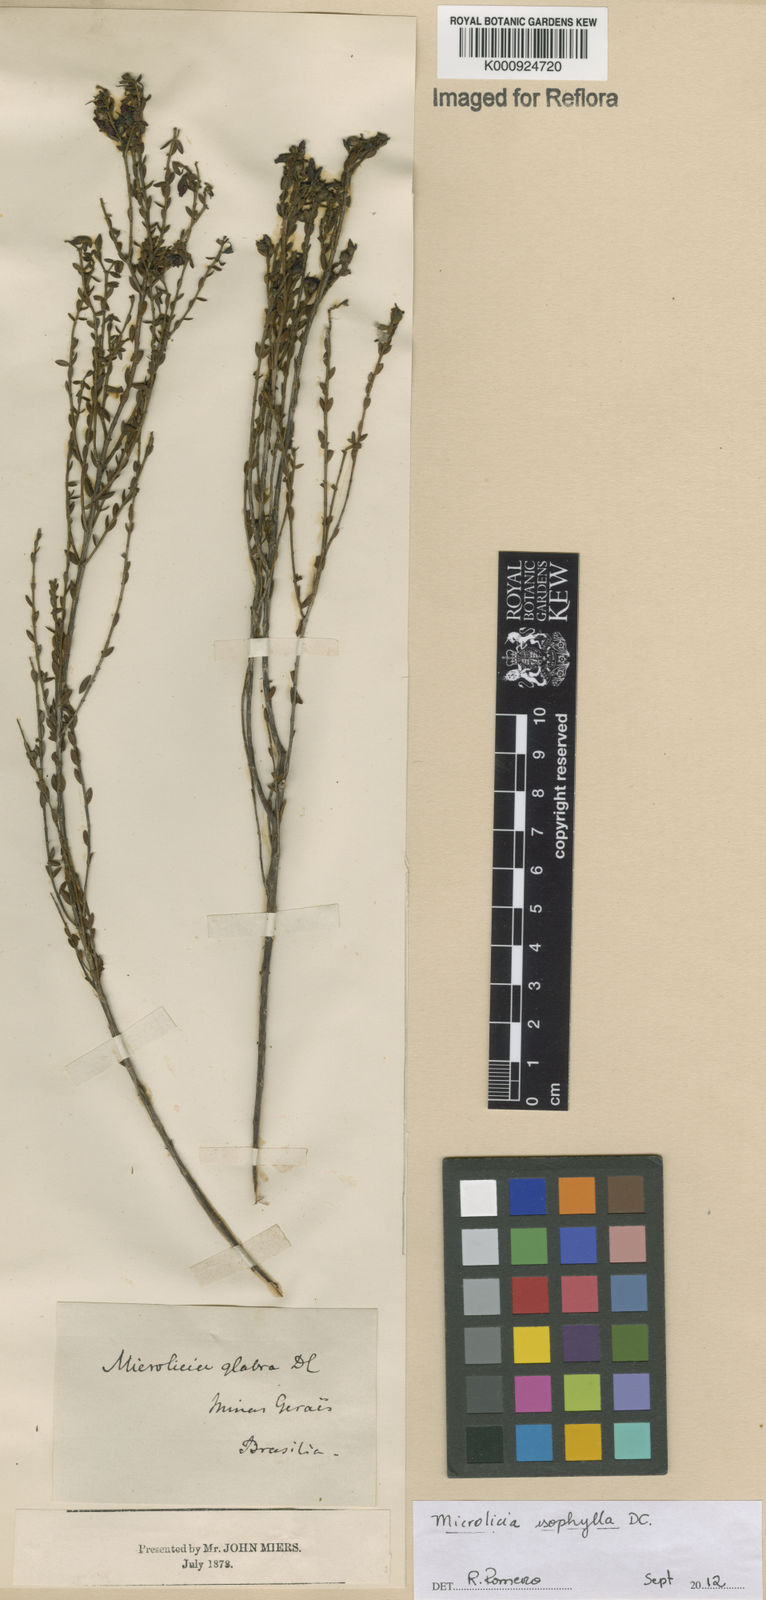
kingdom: Plantae
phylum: Tracheophyta
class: Magnoliopsida
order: Myrtales
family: Melastomataceae
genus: Microlicia
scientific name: Microlicia isophylla
